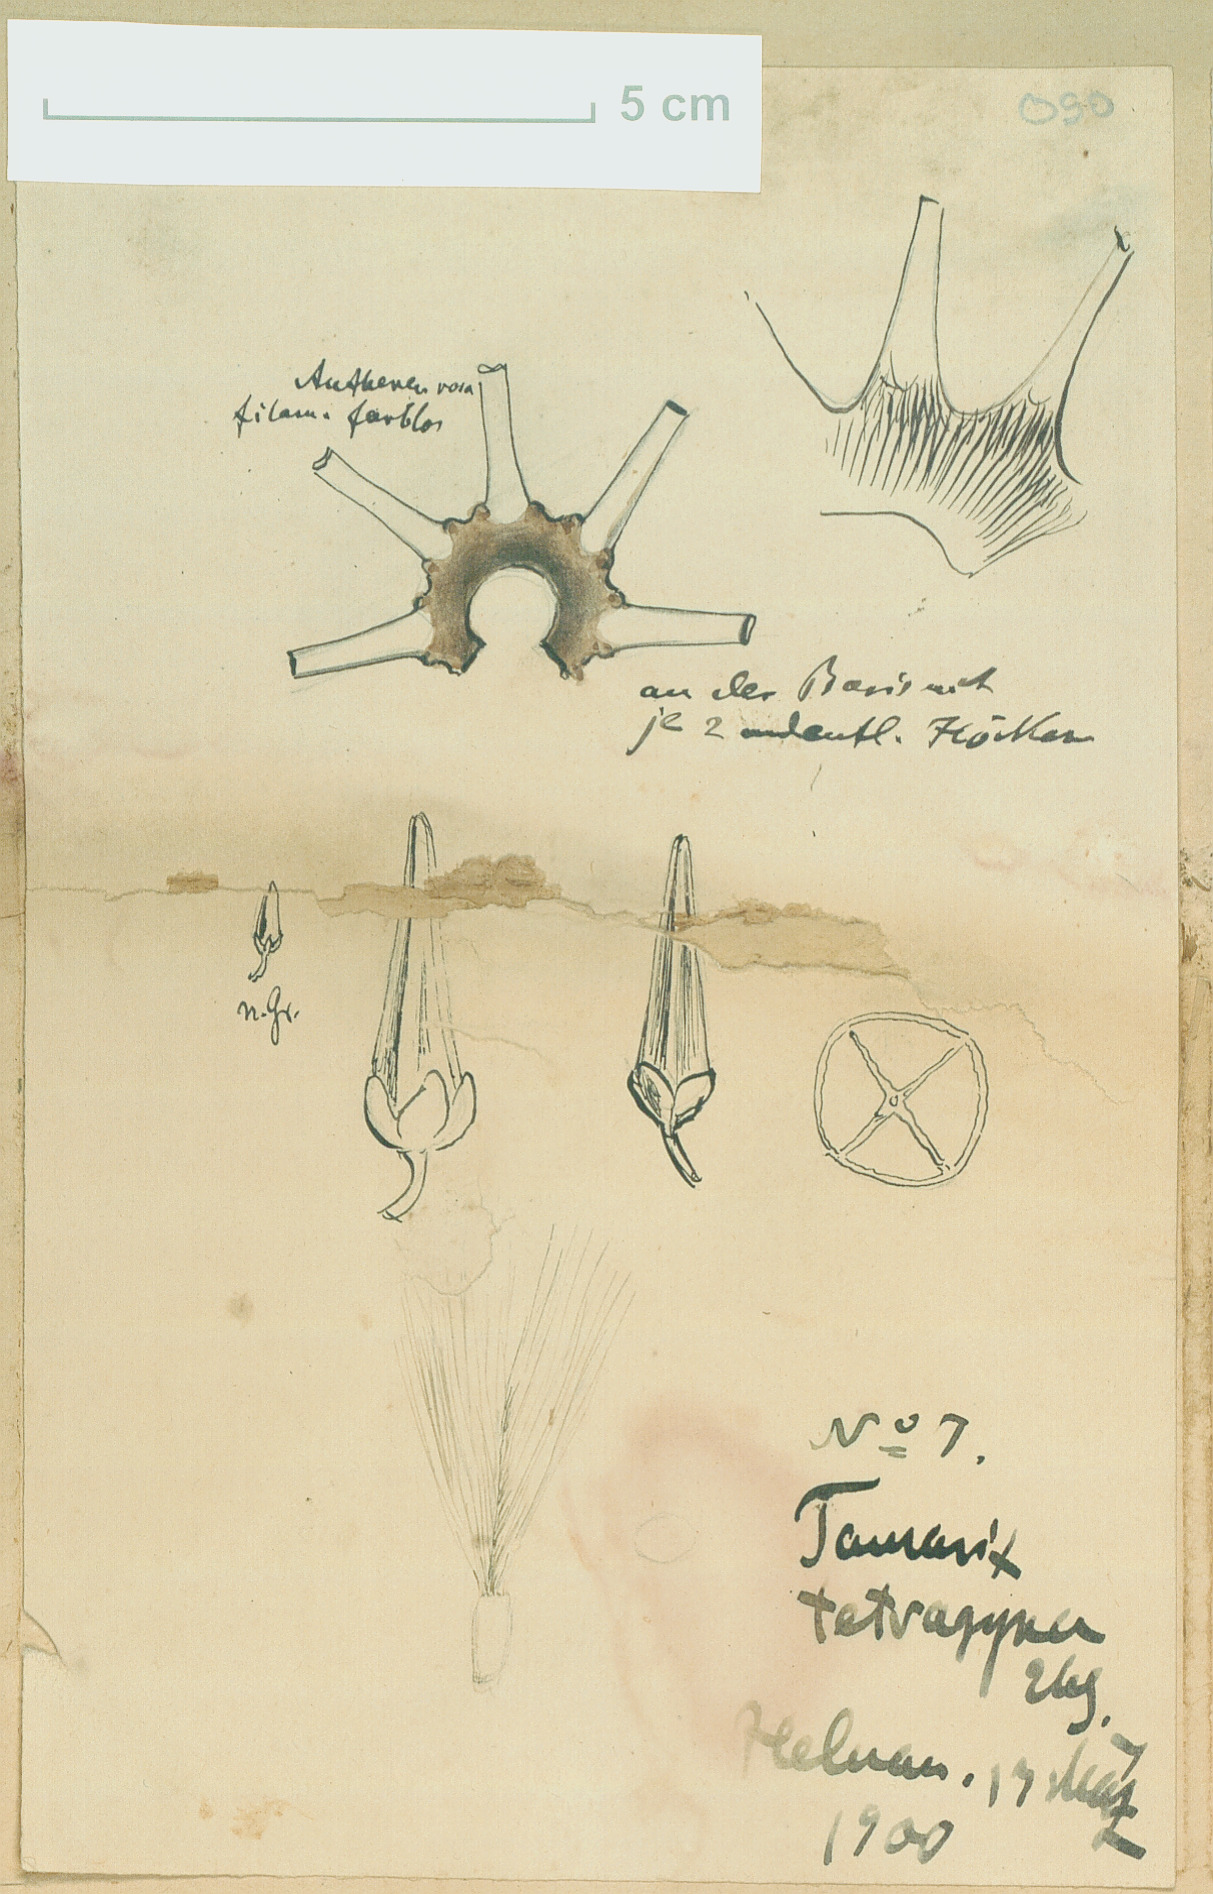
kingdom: Plantae
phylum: Tracheophyta
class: Magnoliopsida
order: Caryophyllales
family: Tamaricaceae
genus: Tamarix
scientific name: Tamarix tetragyna
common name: Four-stamen tamarisk
